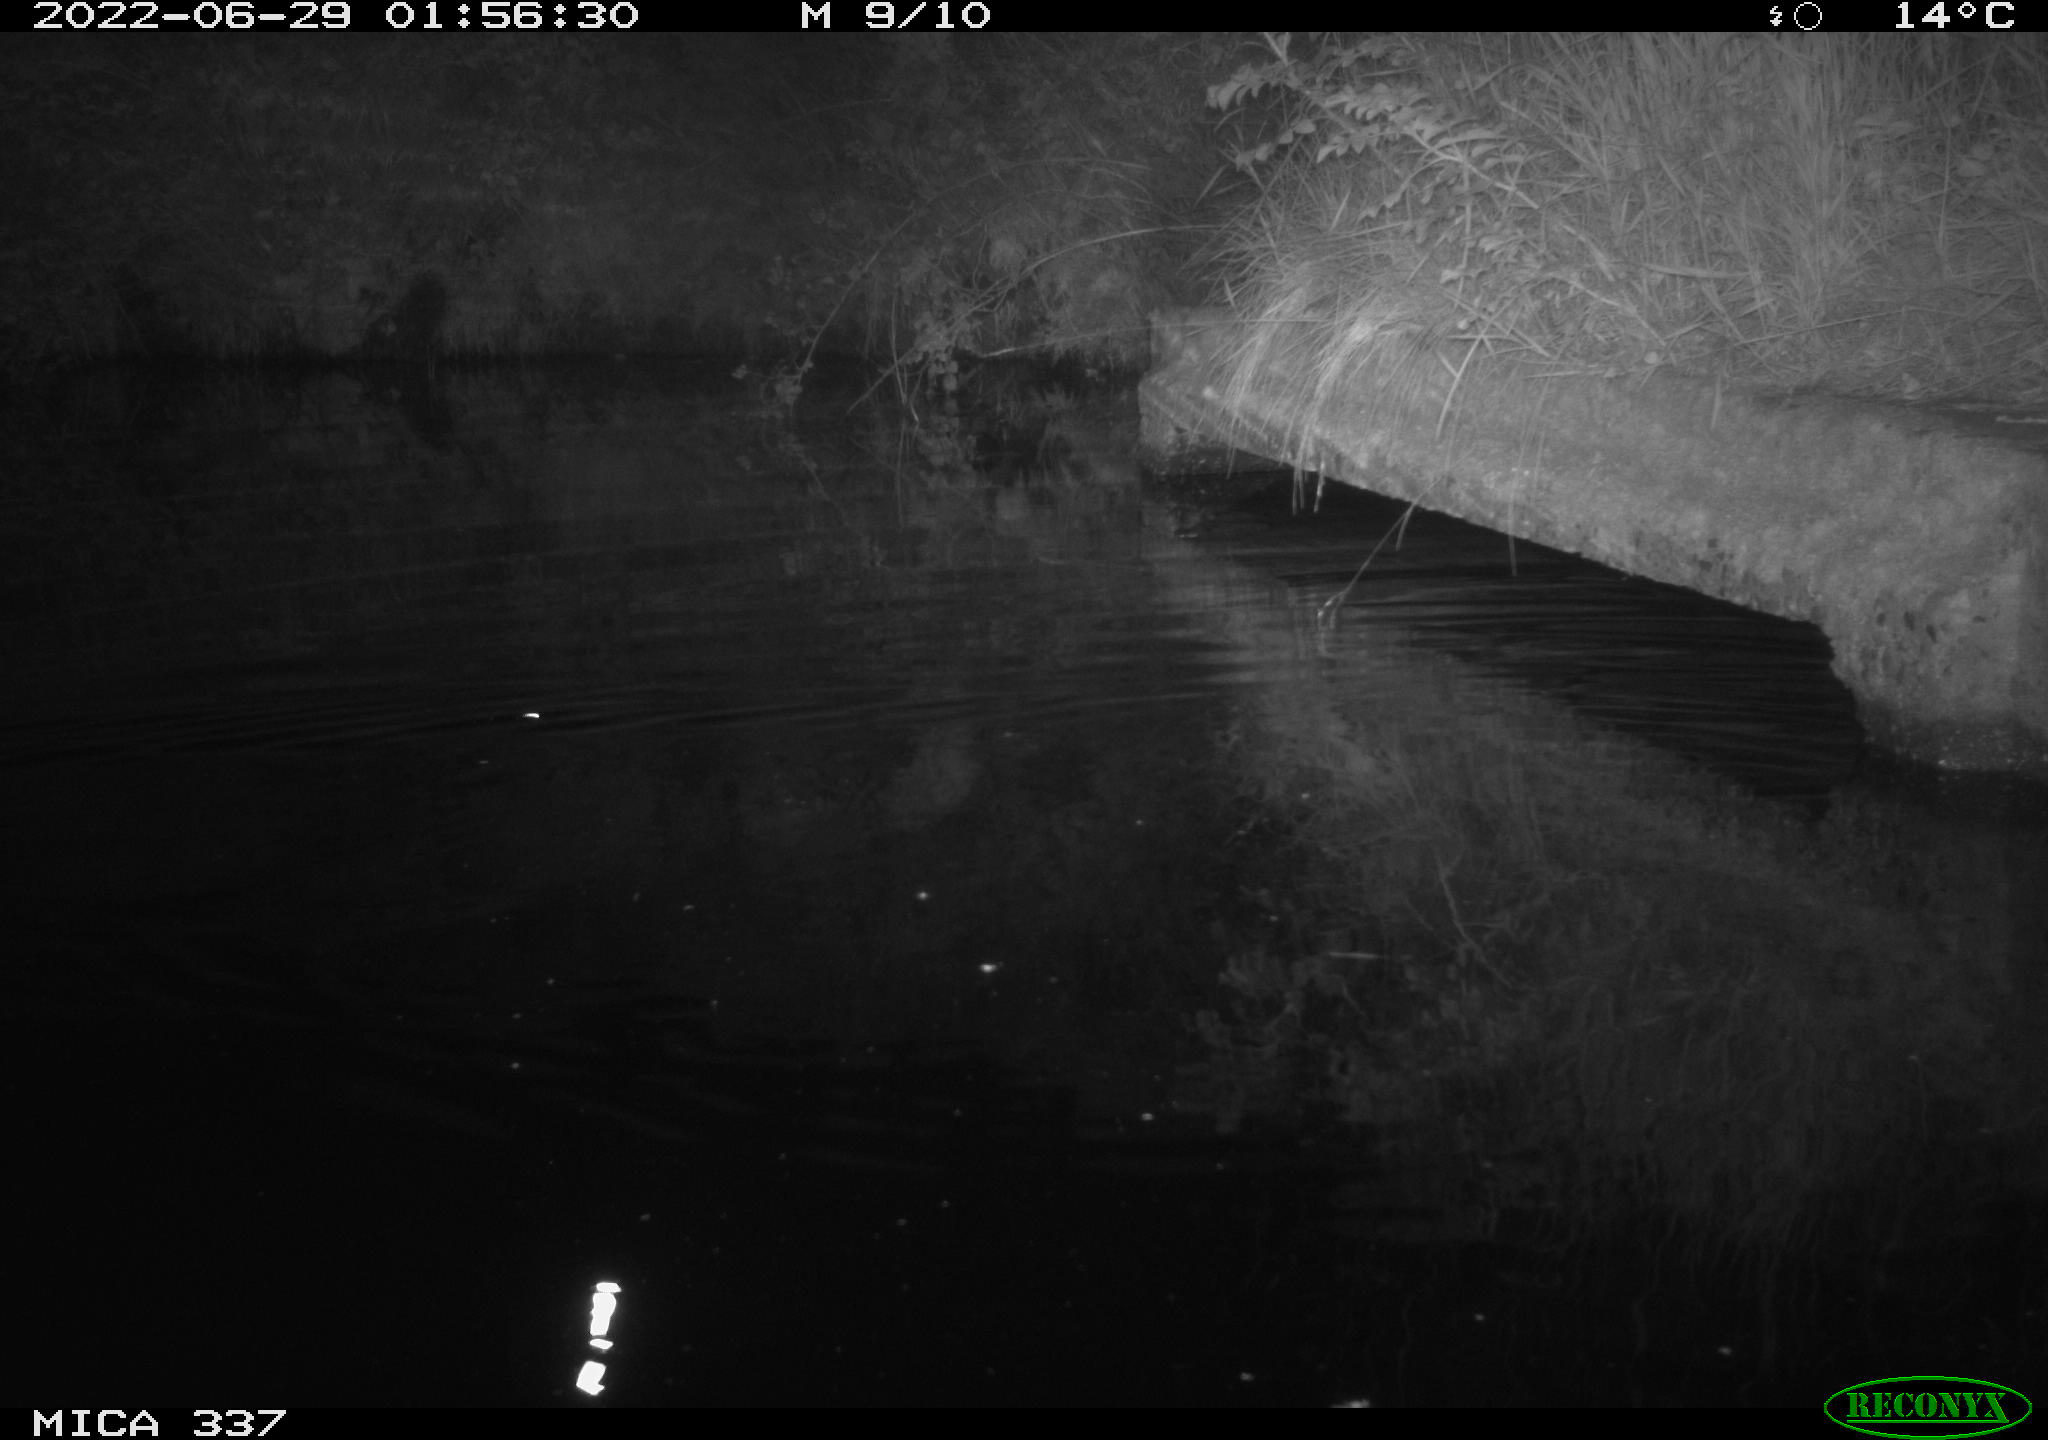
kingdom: Animalia
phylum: Chordata
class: Aves
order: Anseriformes
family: Anatidae
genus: Anas
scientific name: Anas platyrhynchos
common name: Mallard
